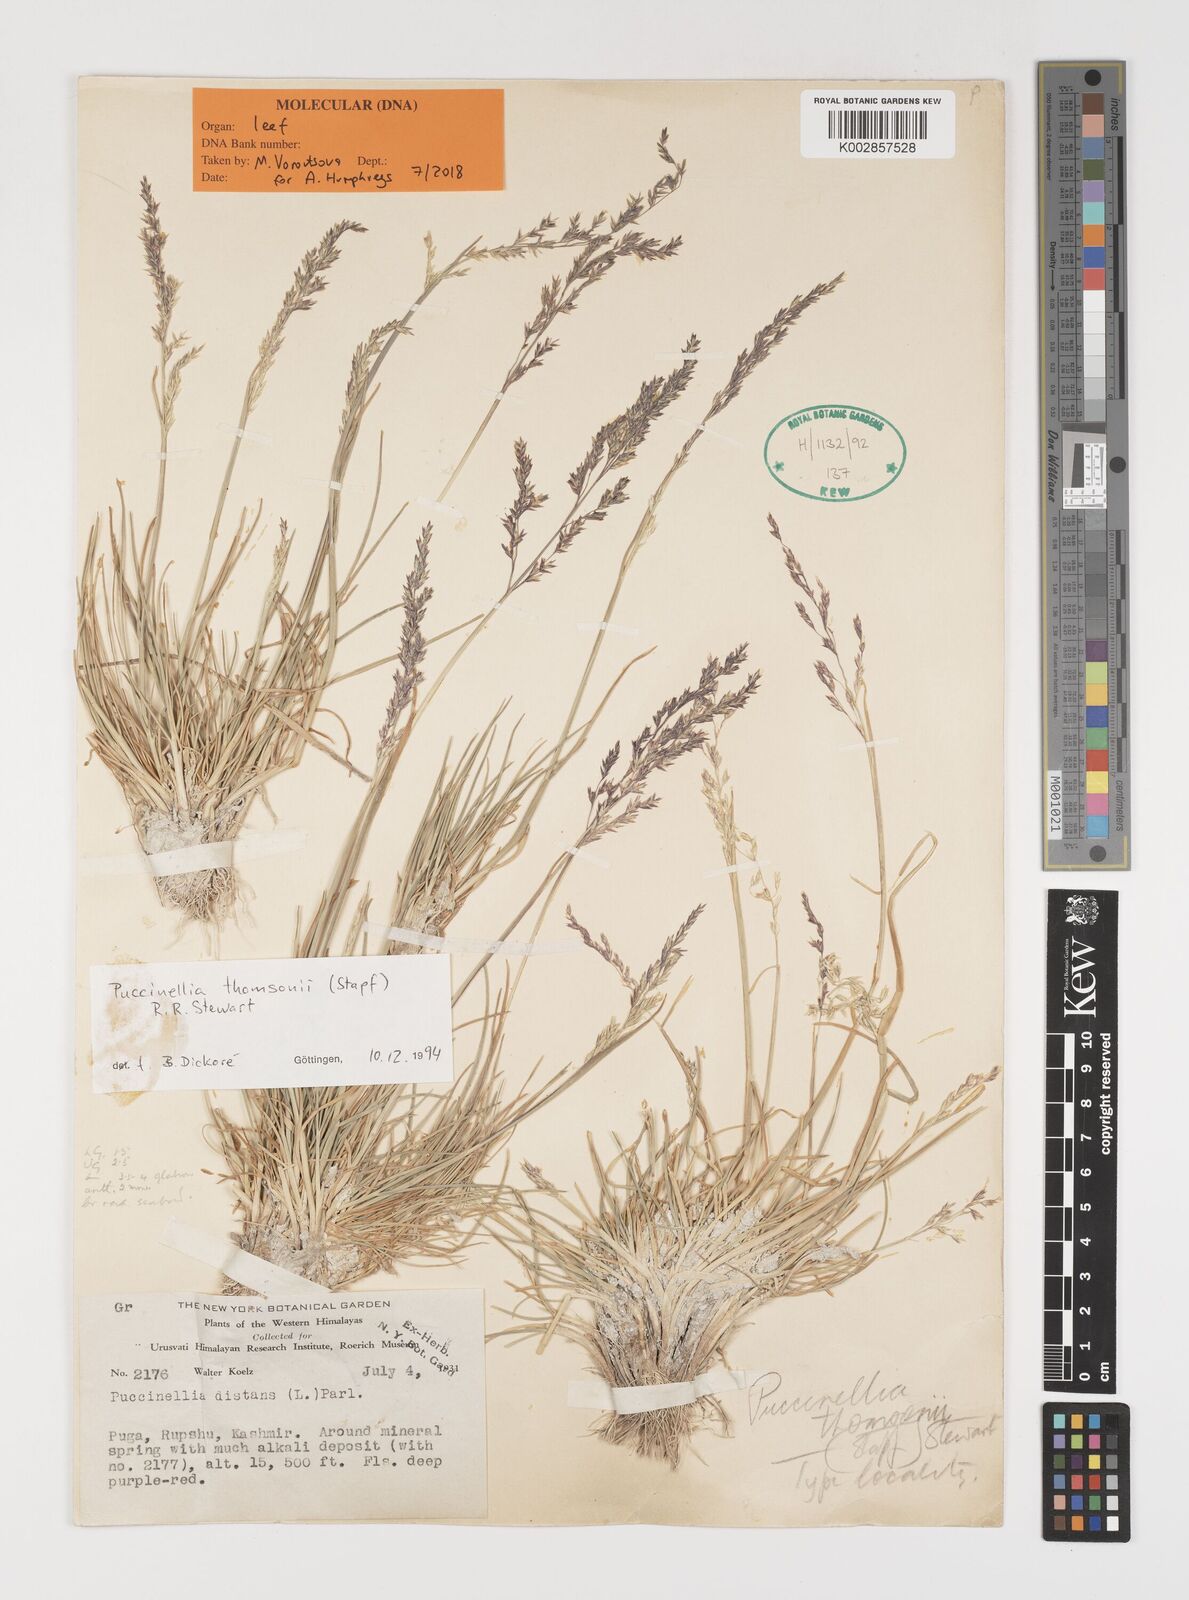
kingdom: Plantae
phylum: Tracheophyta
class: Liliopsida
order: Poales
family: Poaceae
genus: Puccinellia
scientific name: Puccinellia thomsonii
